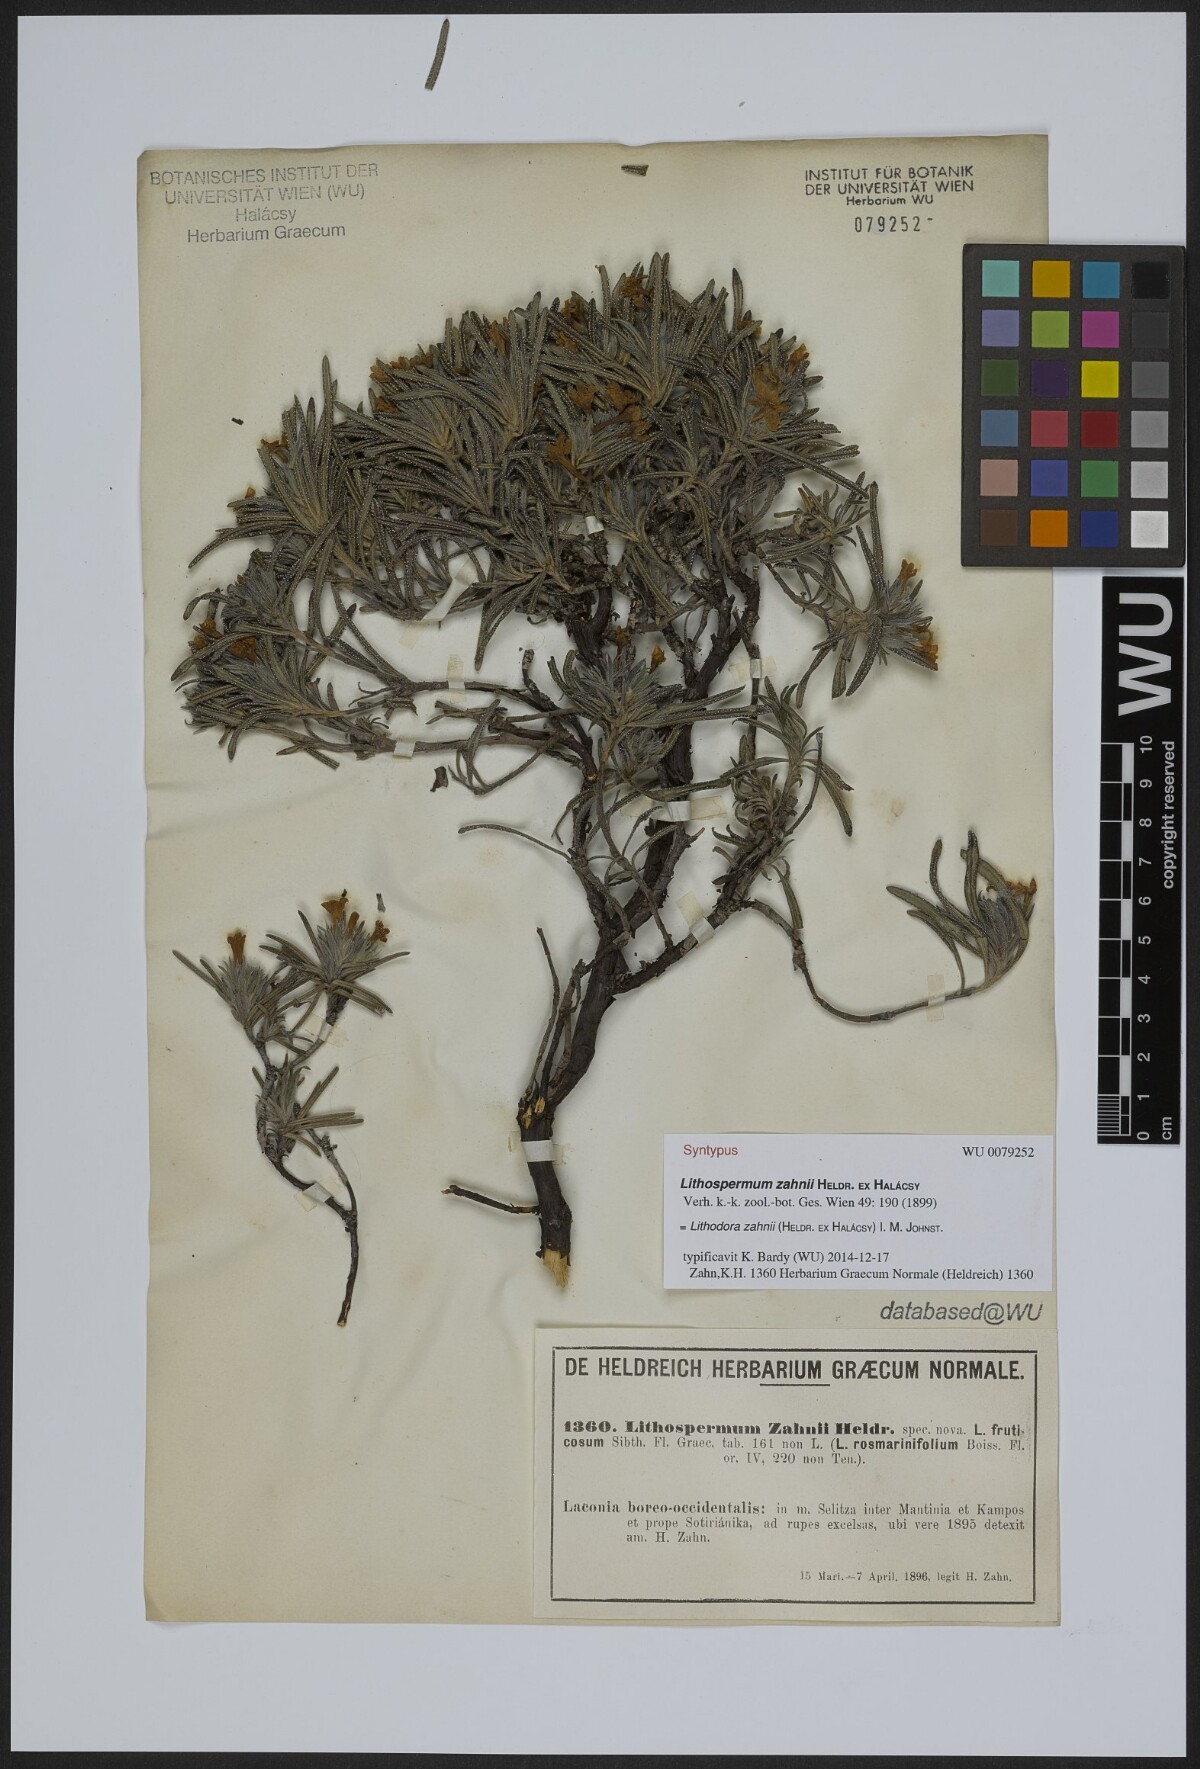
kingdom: Plantae
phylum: Tracheophyta
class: Magnoliopsida
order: Boraginales
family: Boraginaceae
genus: Lithodora
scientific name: Lithodora zahnii
